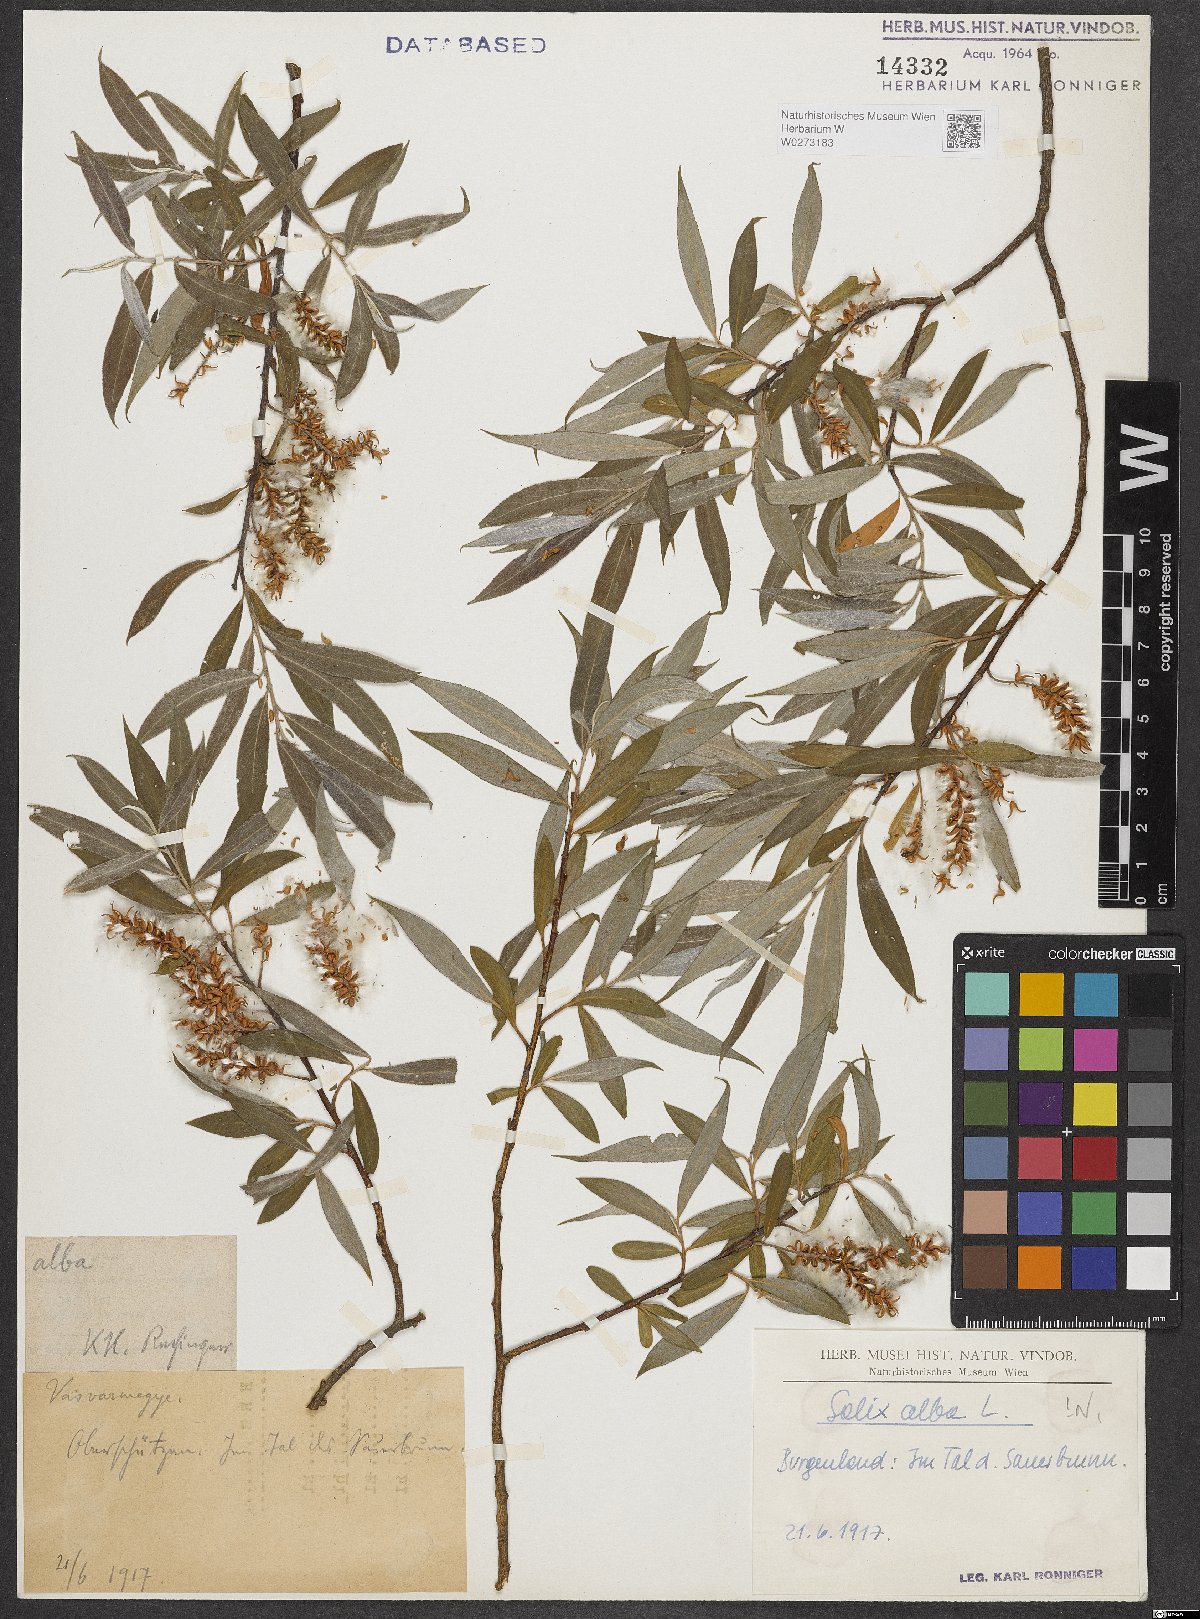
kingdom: Plantae
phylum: Tracheophyta
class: Magnoliopsida
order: Malpighiales
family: Salicaceae
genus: Salix
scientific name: Salix alba
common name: White willow
